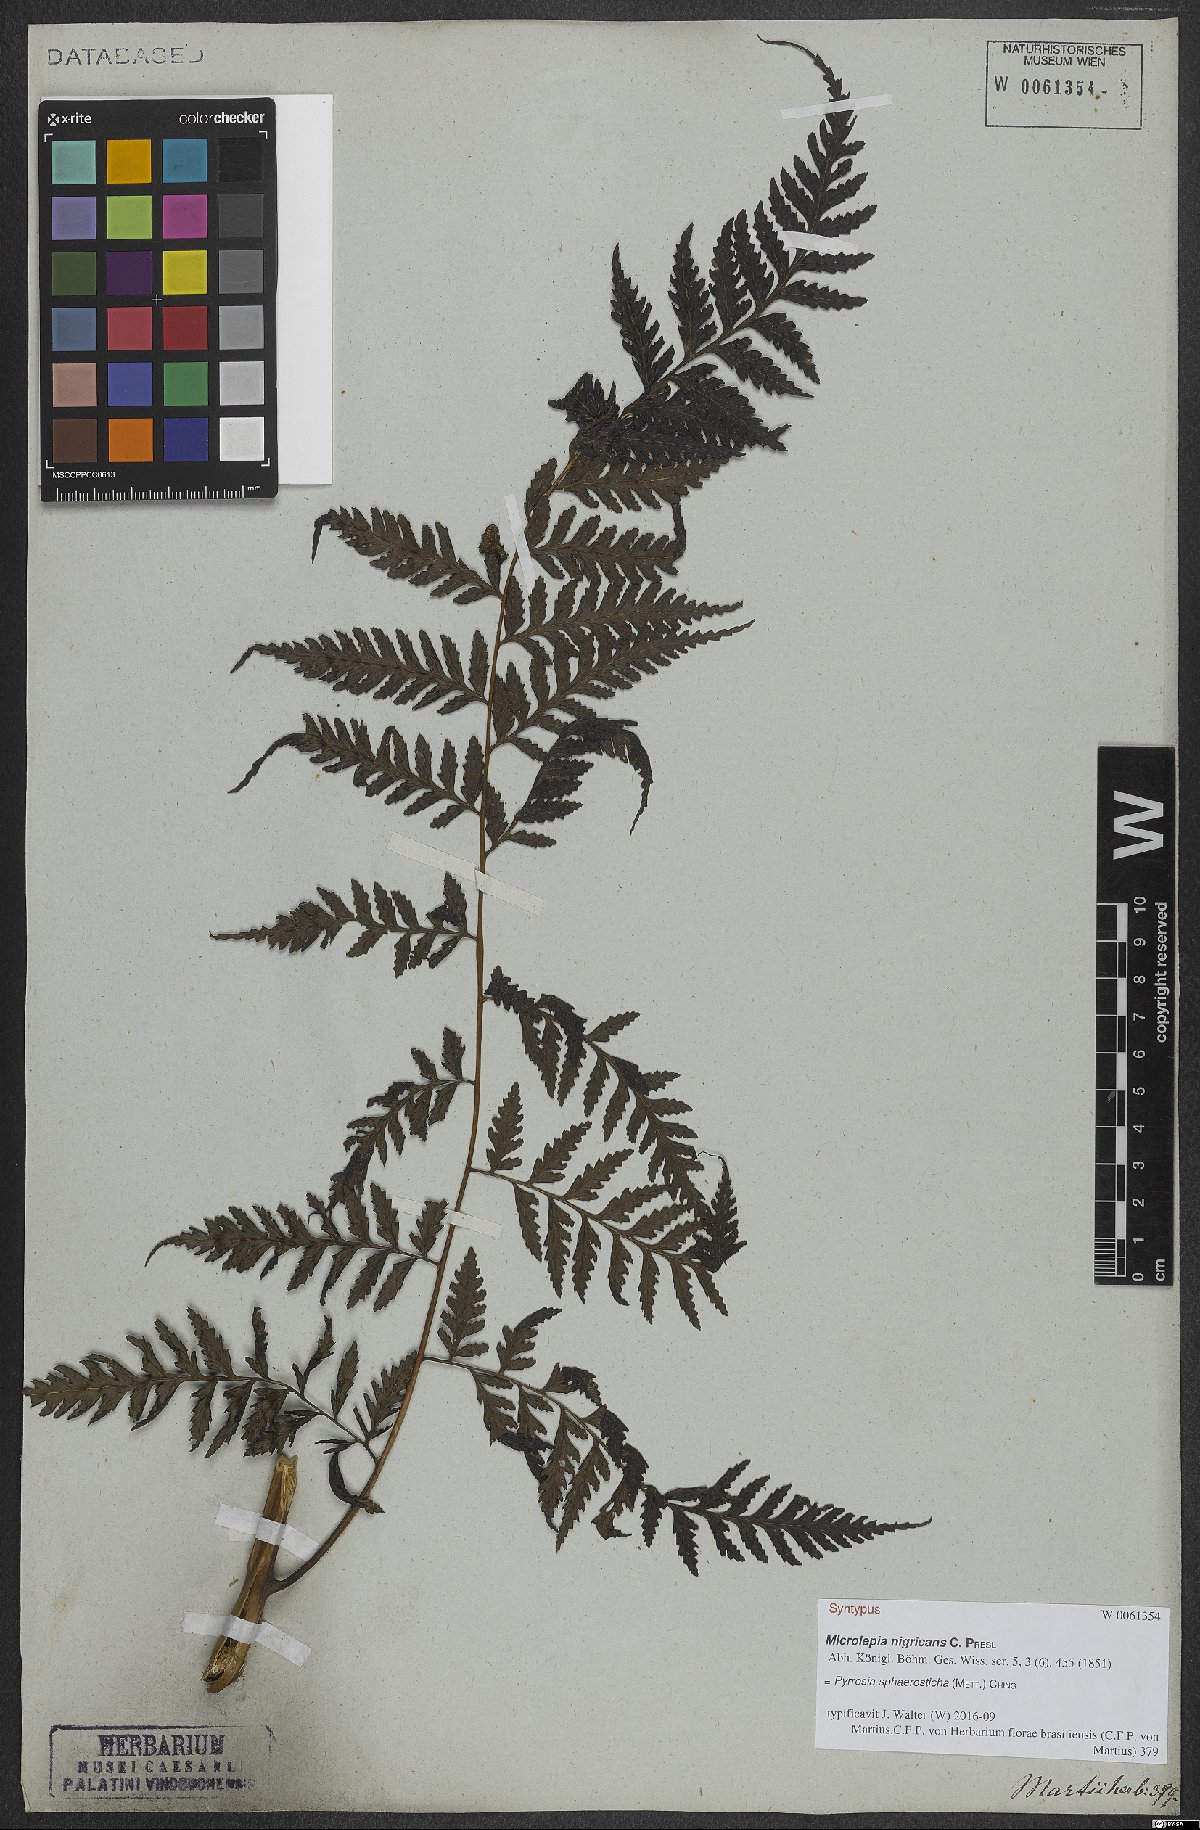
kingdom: Plantae
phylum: Tracheophyta
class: Polypodiopsida
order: Polypodiales
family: Polypodiaceae
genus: Pyrrosia
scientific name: Pyrrosia sphaerosticha
